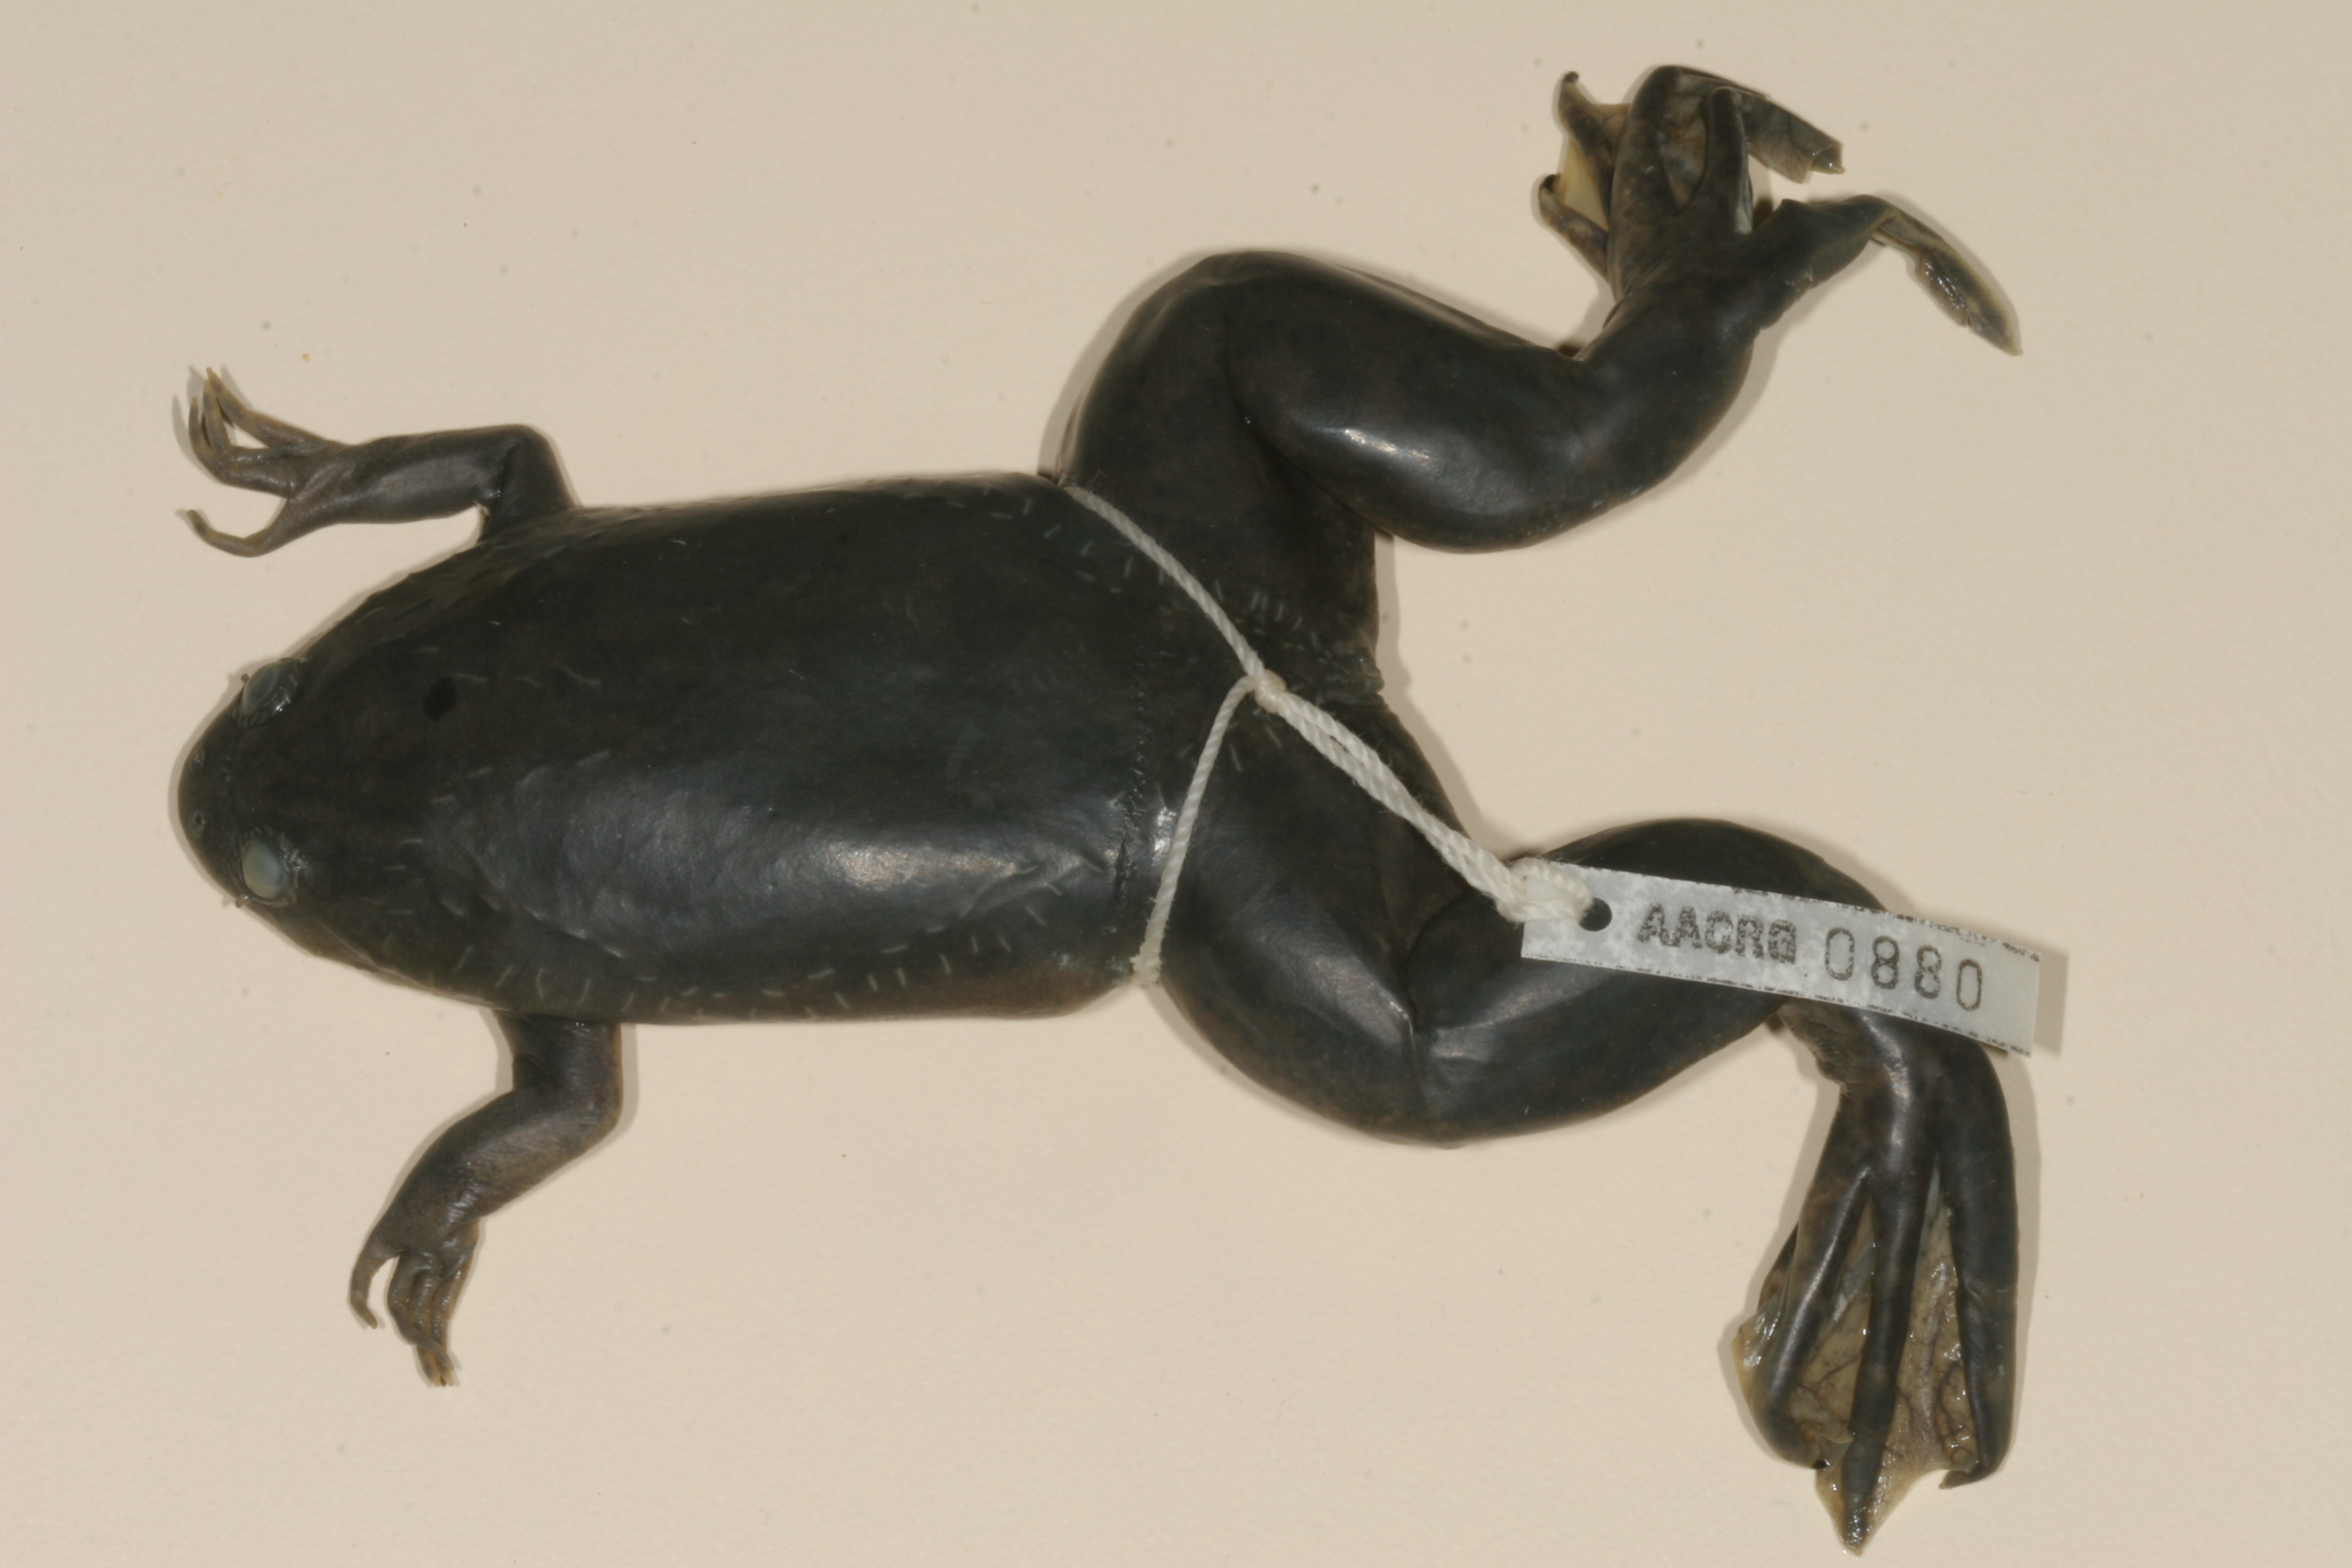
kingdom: Animalia
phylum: Chordata
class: Amphibia
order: Anura
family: Pipidae
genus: Xenopus
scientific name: Xenopus laevis
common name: African clawed frog
